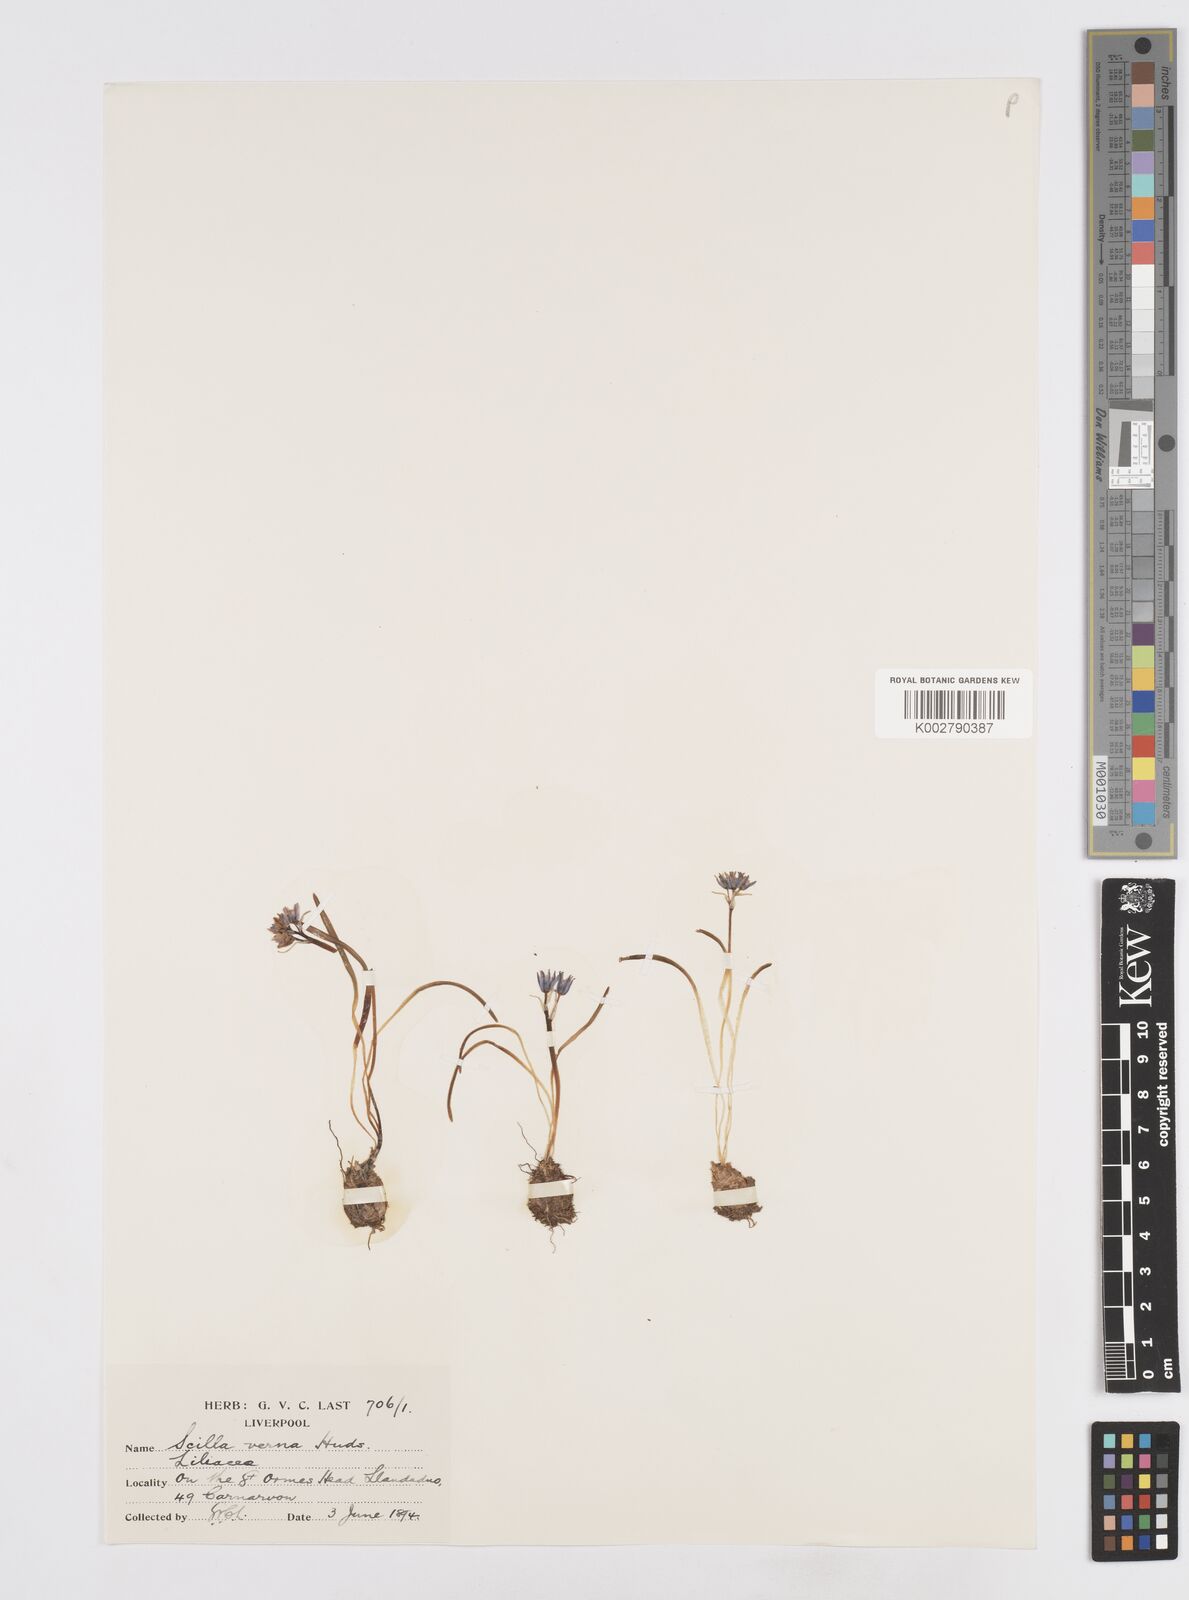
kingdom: Plantae
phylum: Tracheophyta
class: Liliopsida
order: Asparagales
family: Asparagaceae
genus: Scilla
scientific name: Scilla verna
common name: Spring squill
